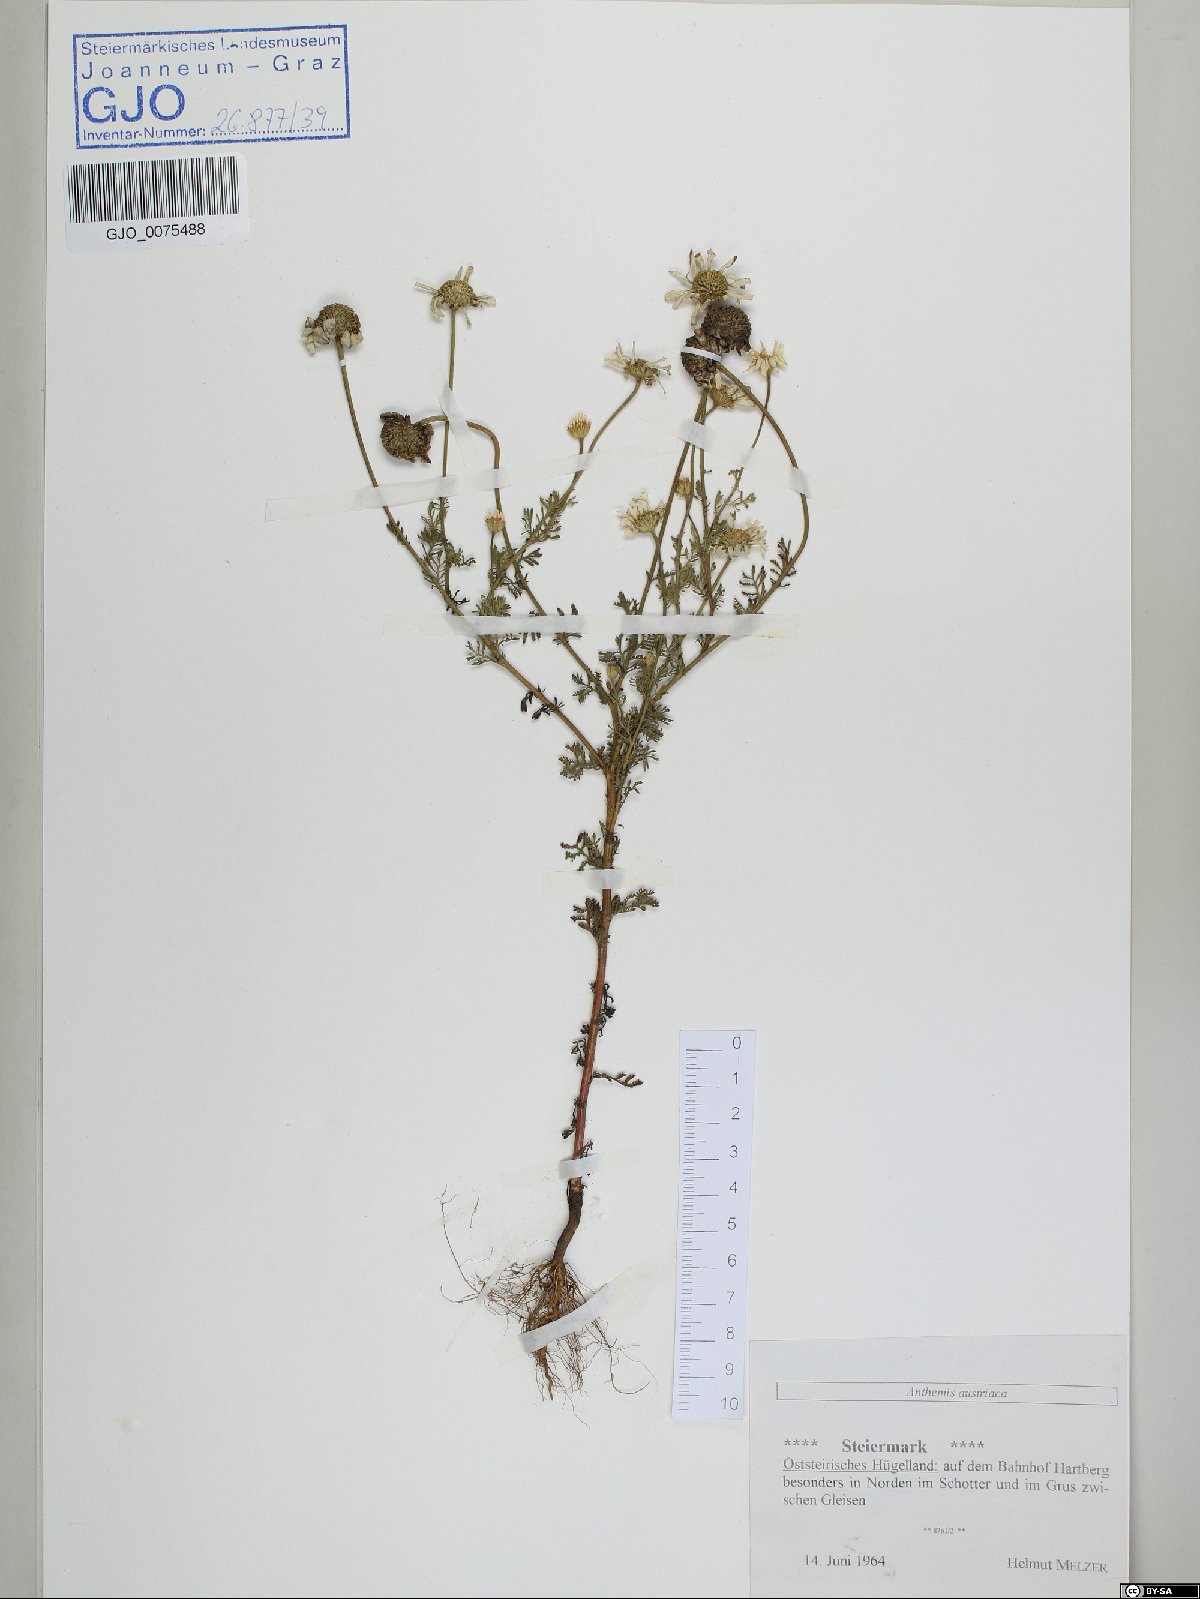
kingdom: Plantae
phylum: Tracheophyta
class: Magnoliopsida
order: Asterales
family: Asteraceae
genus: Cota
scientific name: Cota austriaca
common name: Austrian chamomile
